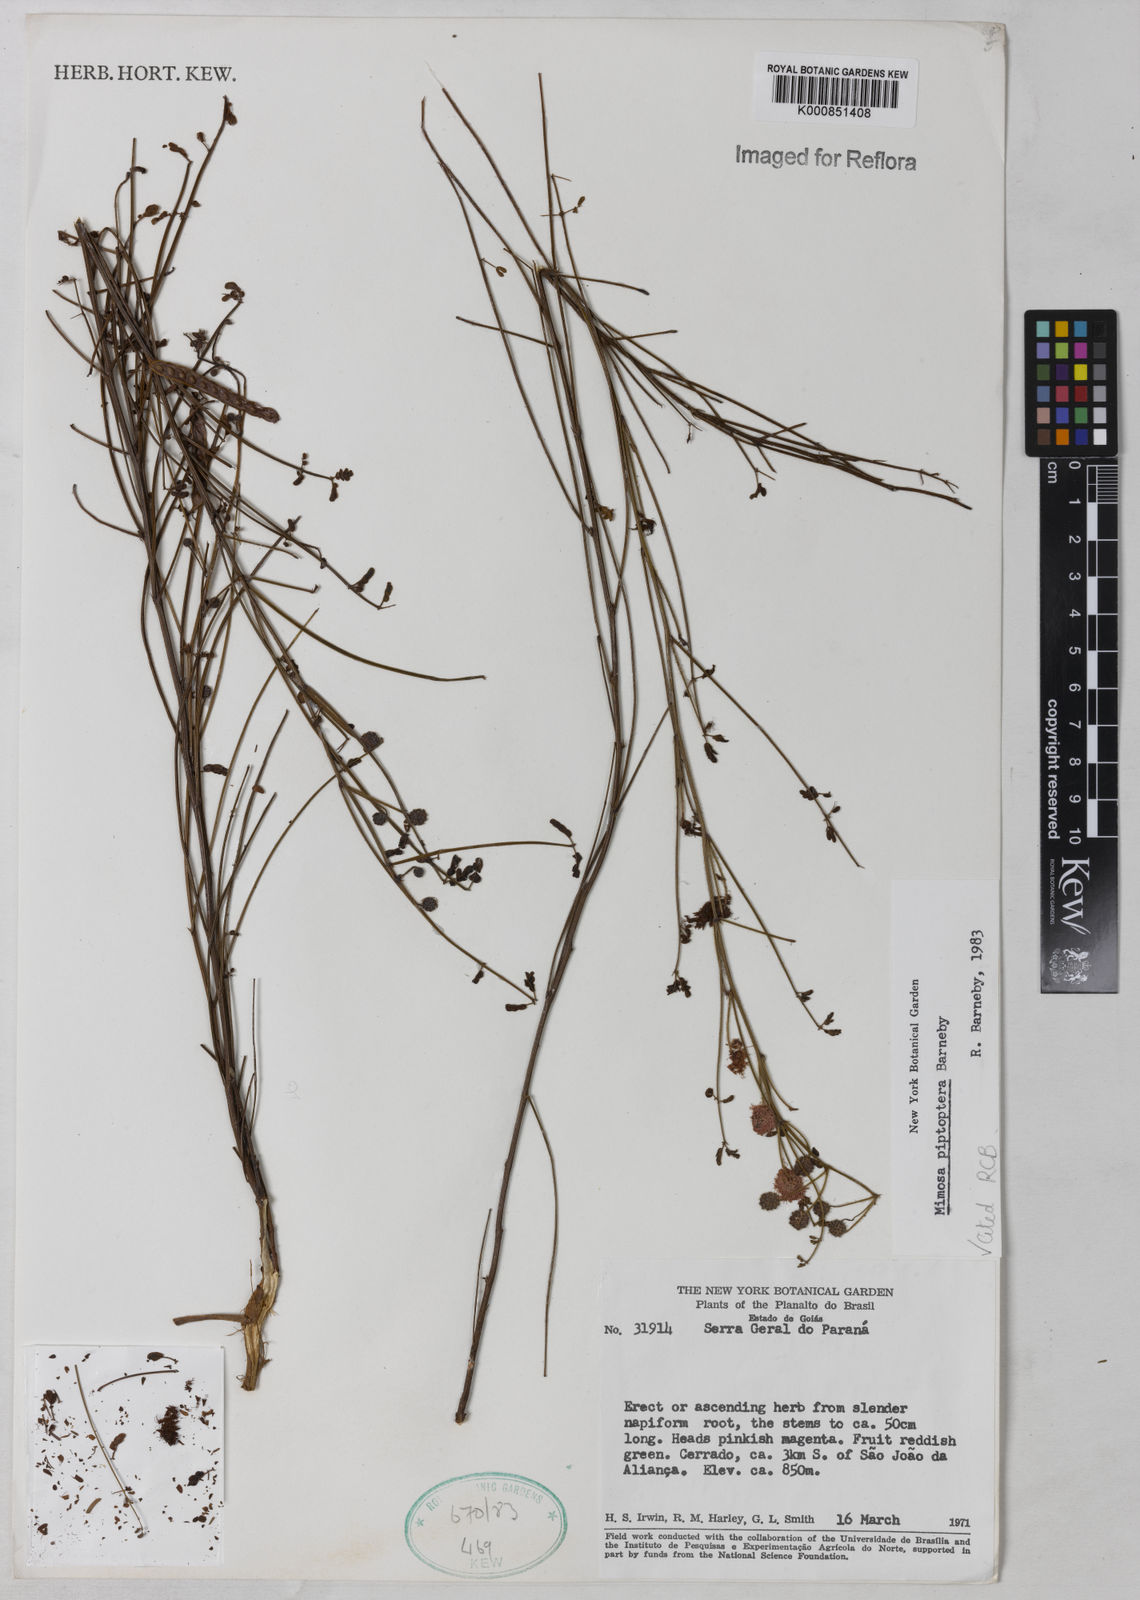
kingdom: Plantae
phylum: Tracheophyta
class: Magnoliopsida
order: Fabales
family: Fabaceae
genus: Mimosa
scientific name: Mimosa piptoptera
